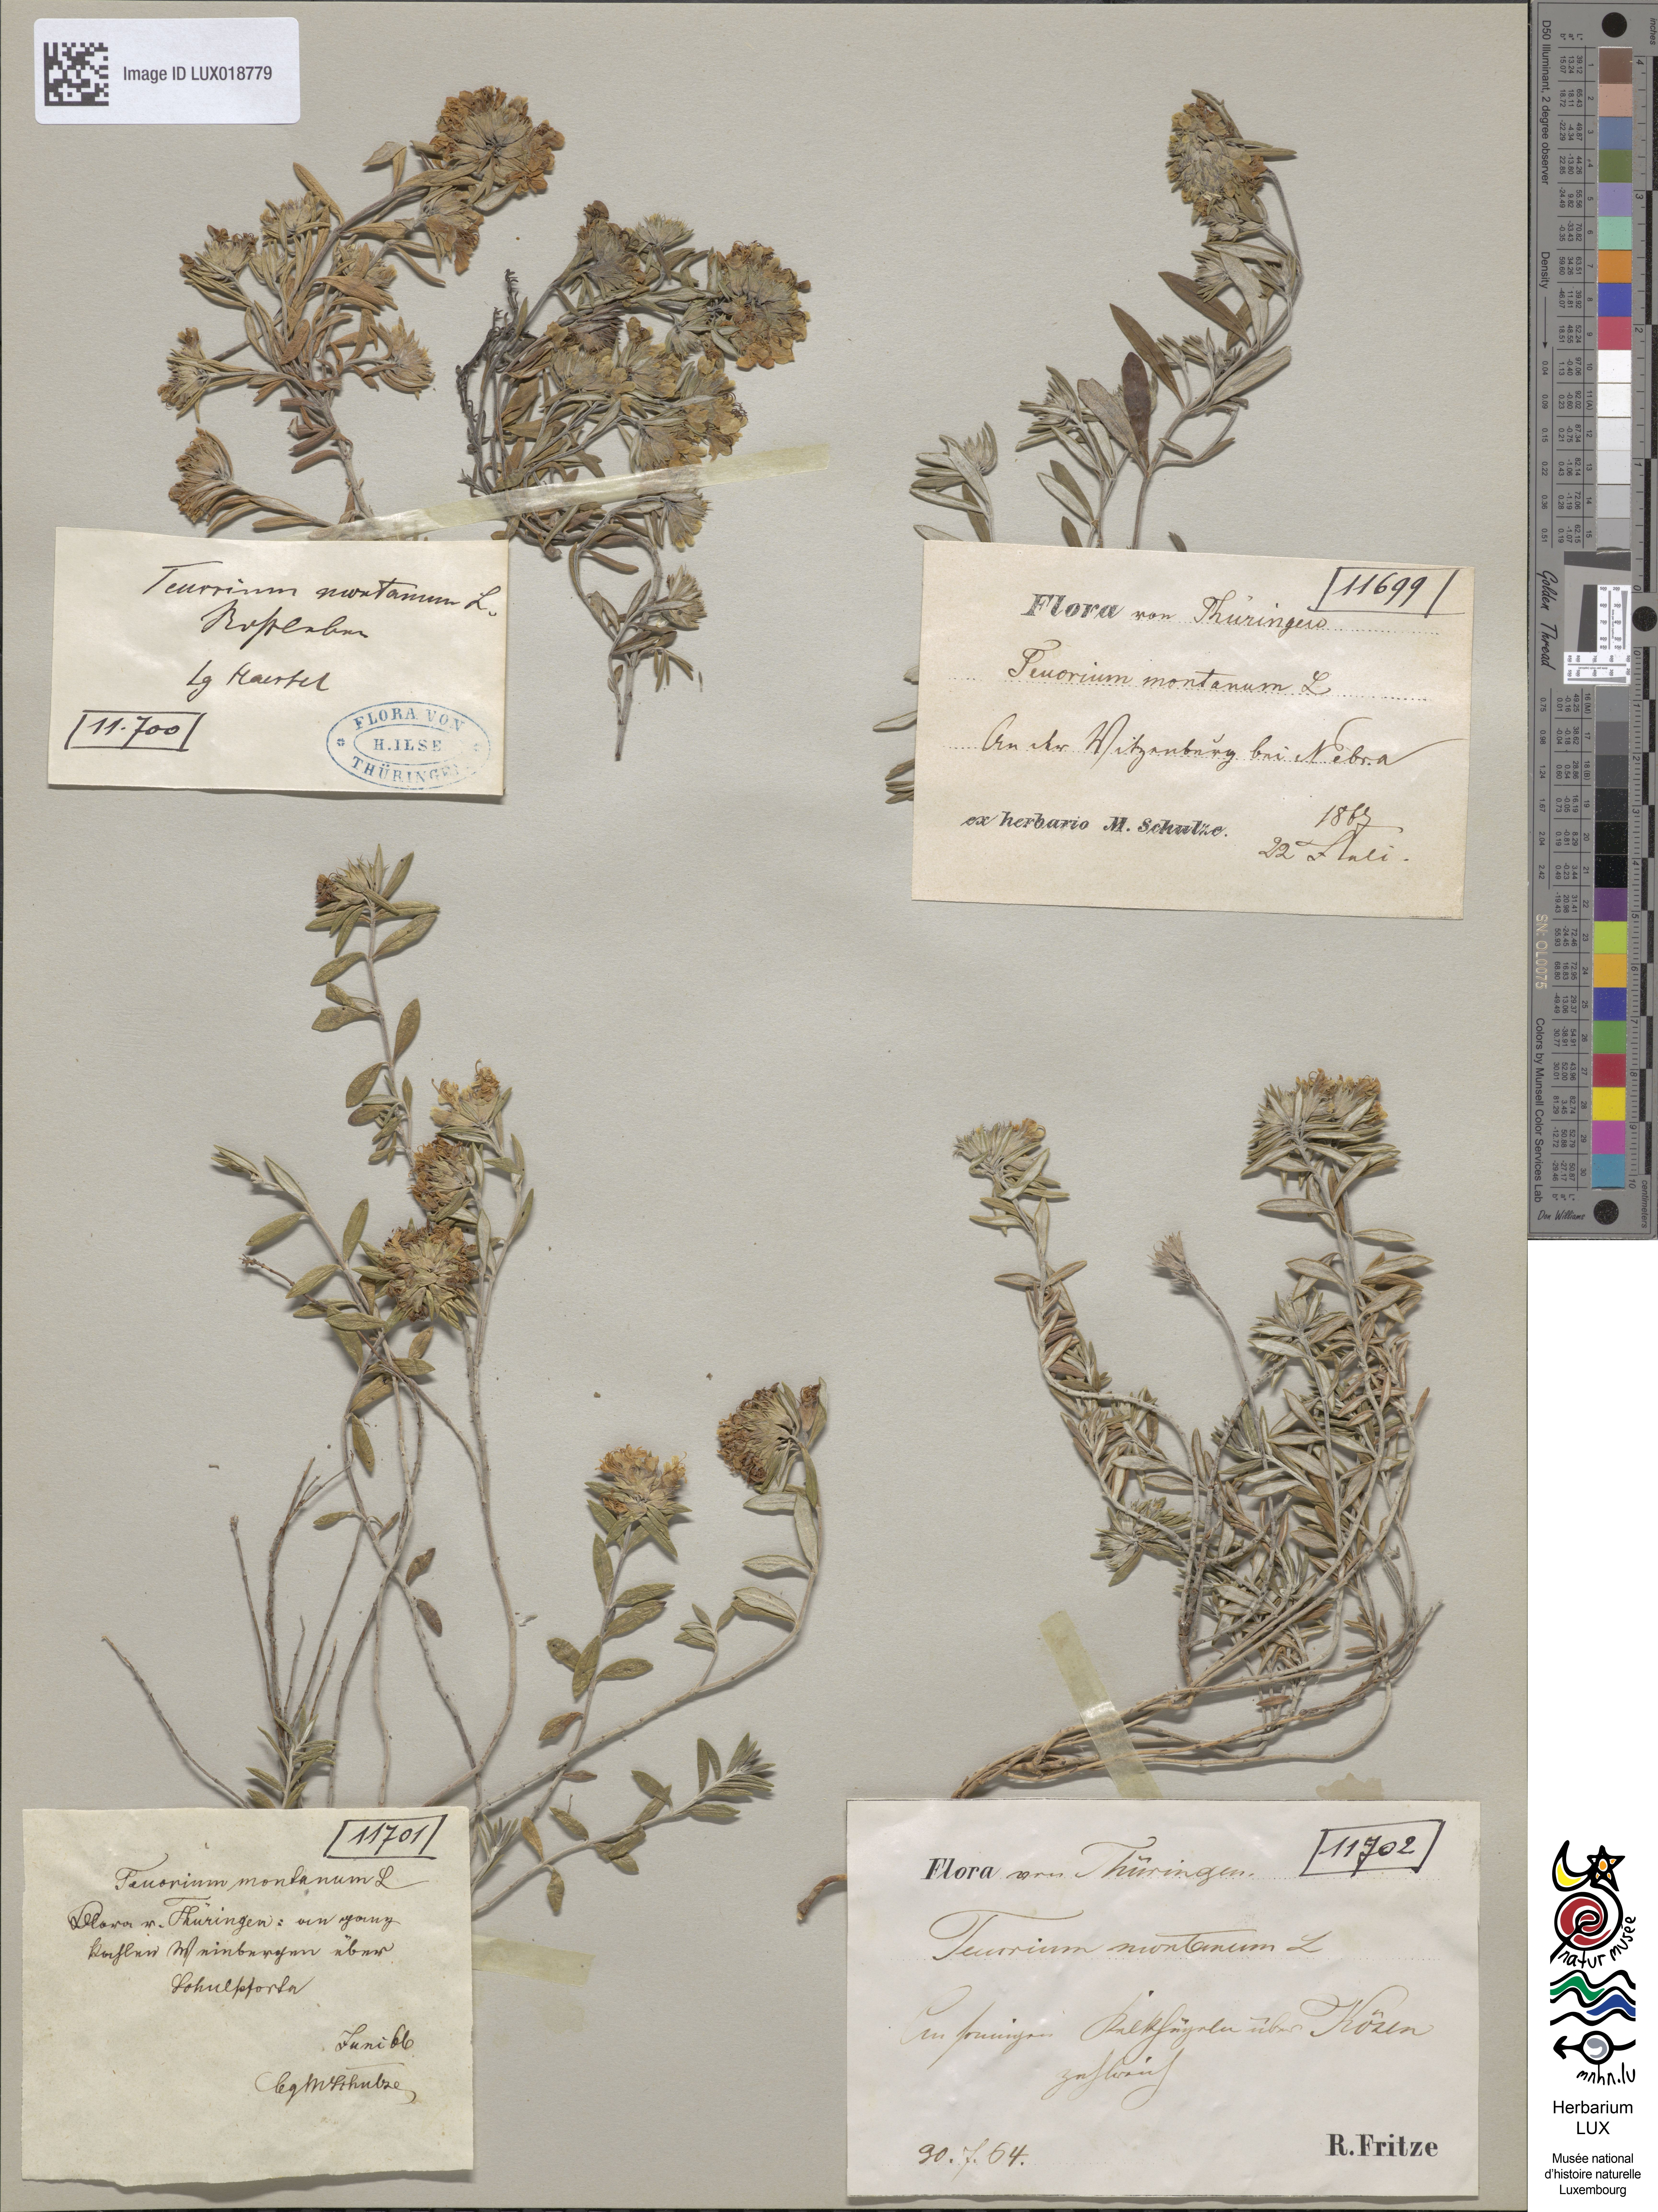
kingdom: Plantae
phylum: Tracheophyta
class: Magnoliopsida
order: Lamiales
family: Lamiaceae
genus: Teucrium
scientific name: Teucrium montanum
